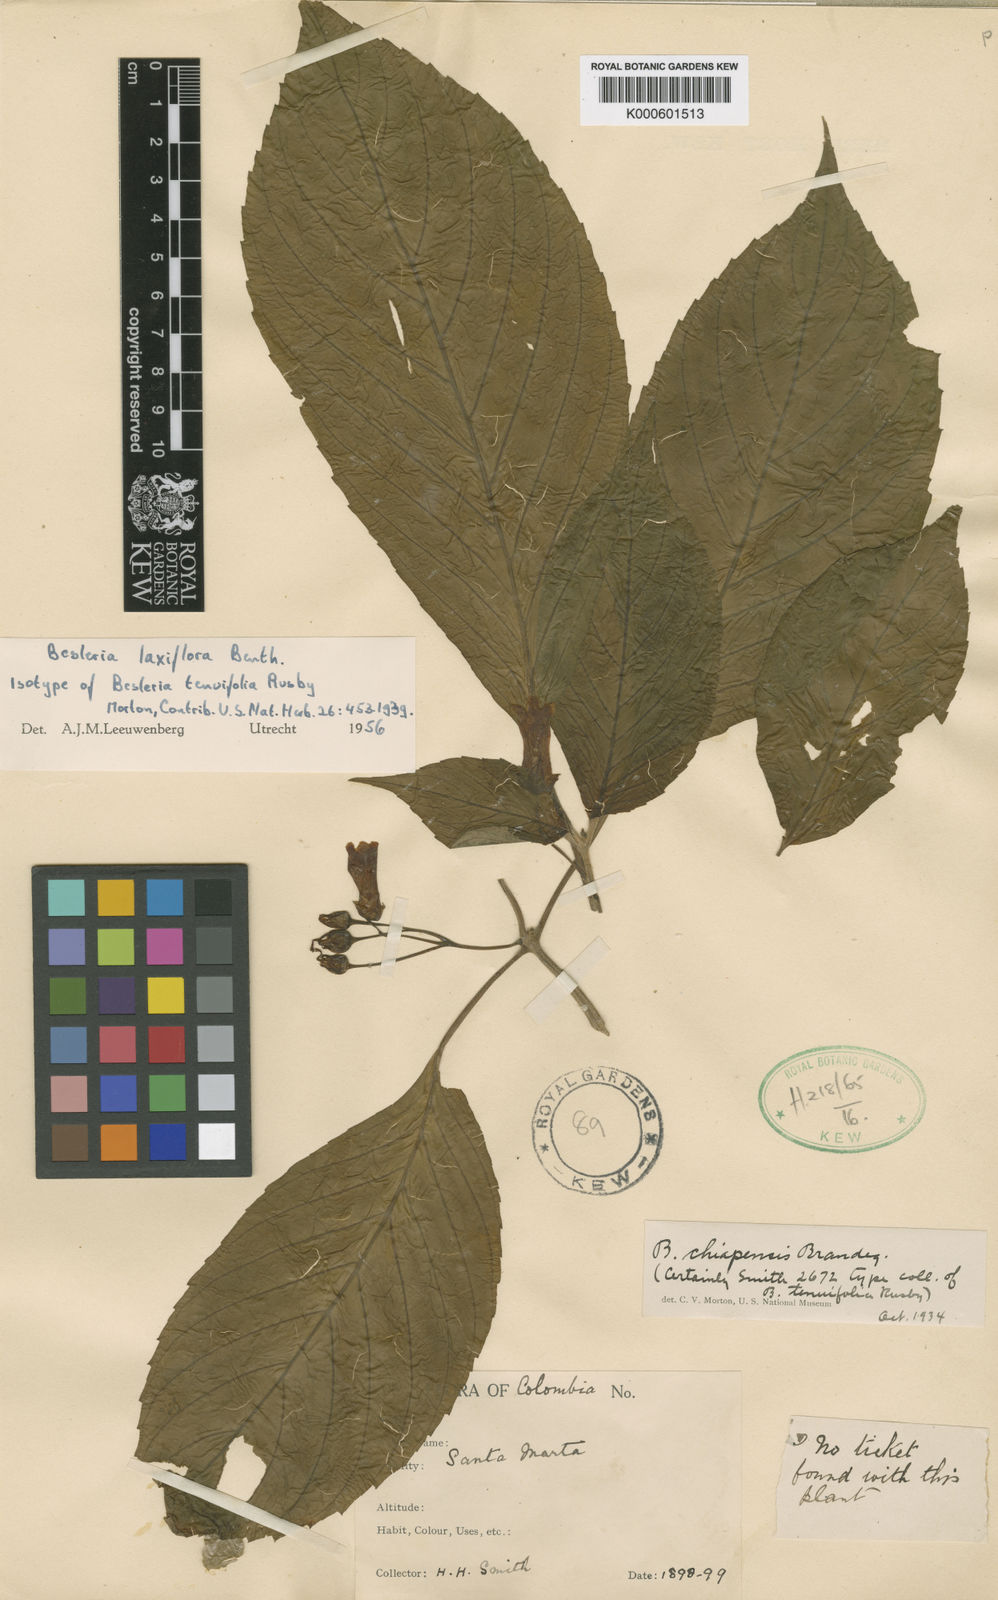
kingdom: Plantae
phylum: Tracheophyta
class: Magnoliopsida
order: Lamiales
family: Gesneriaceae
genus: Besleria
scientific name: Besleria laxiflora
